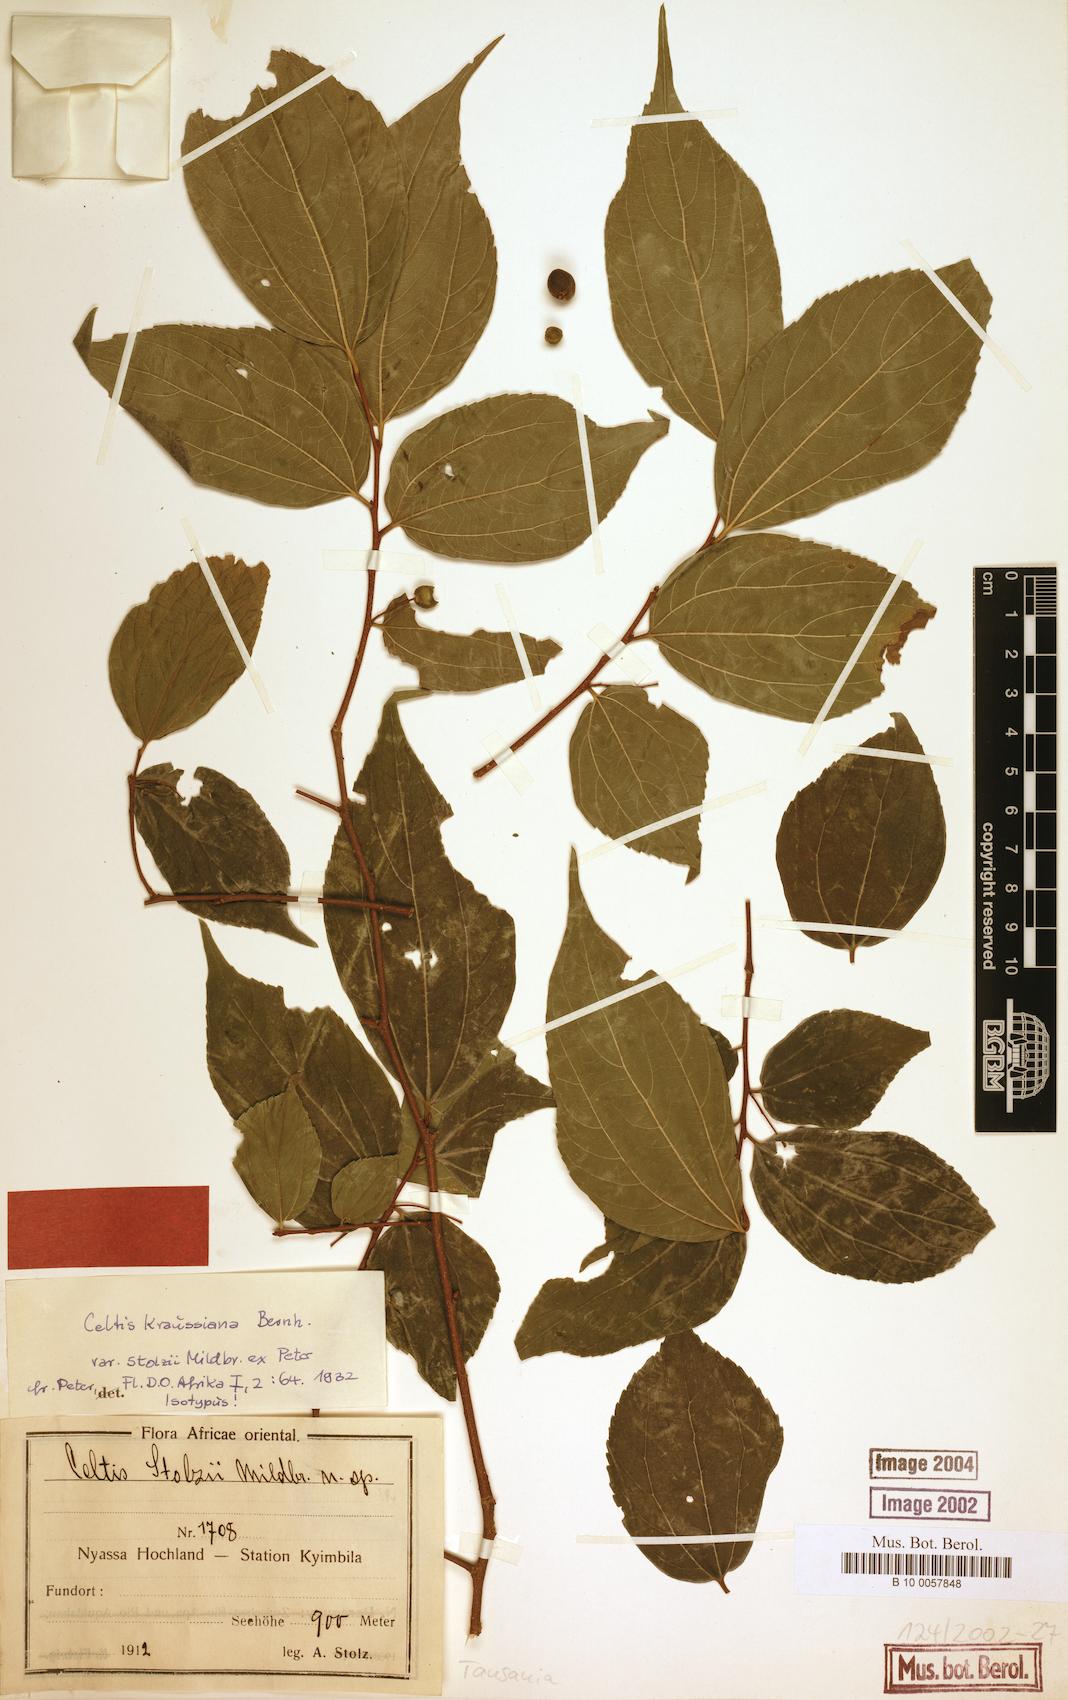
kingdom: Plantae
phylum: Tracheophyta
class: Magnoliopsida
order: Rosales
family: Cannabaceae
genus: Celtis
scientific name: Celtis africana
